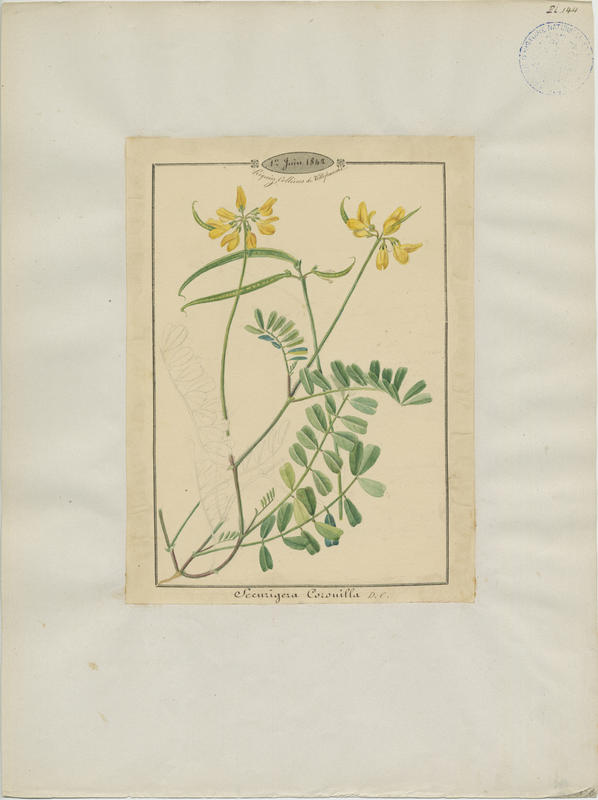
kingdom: Plantae
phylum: Tracheophyta
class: Magnoliopsida
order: Fabales
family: Fabaceae
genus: Coronilla
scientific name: Coronilla securidaca
